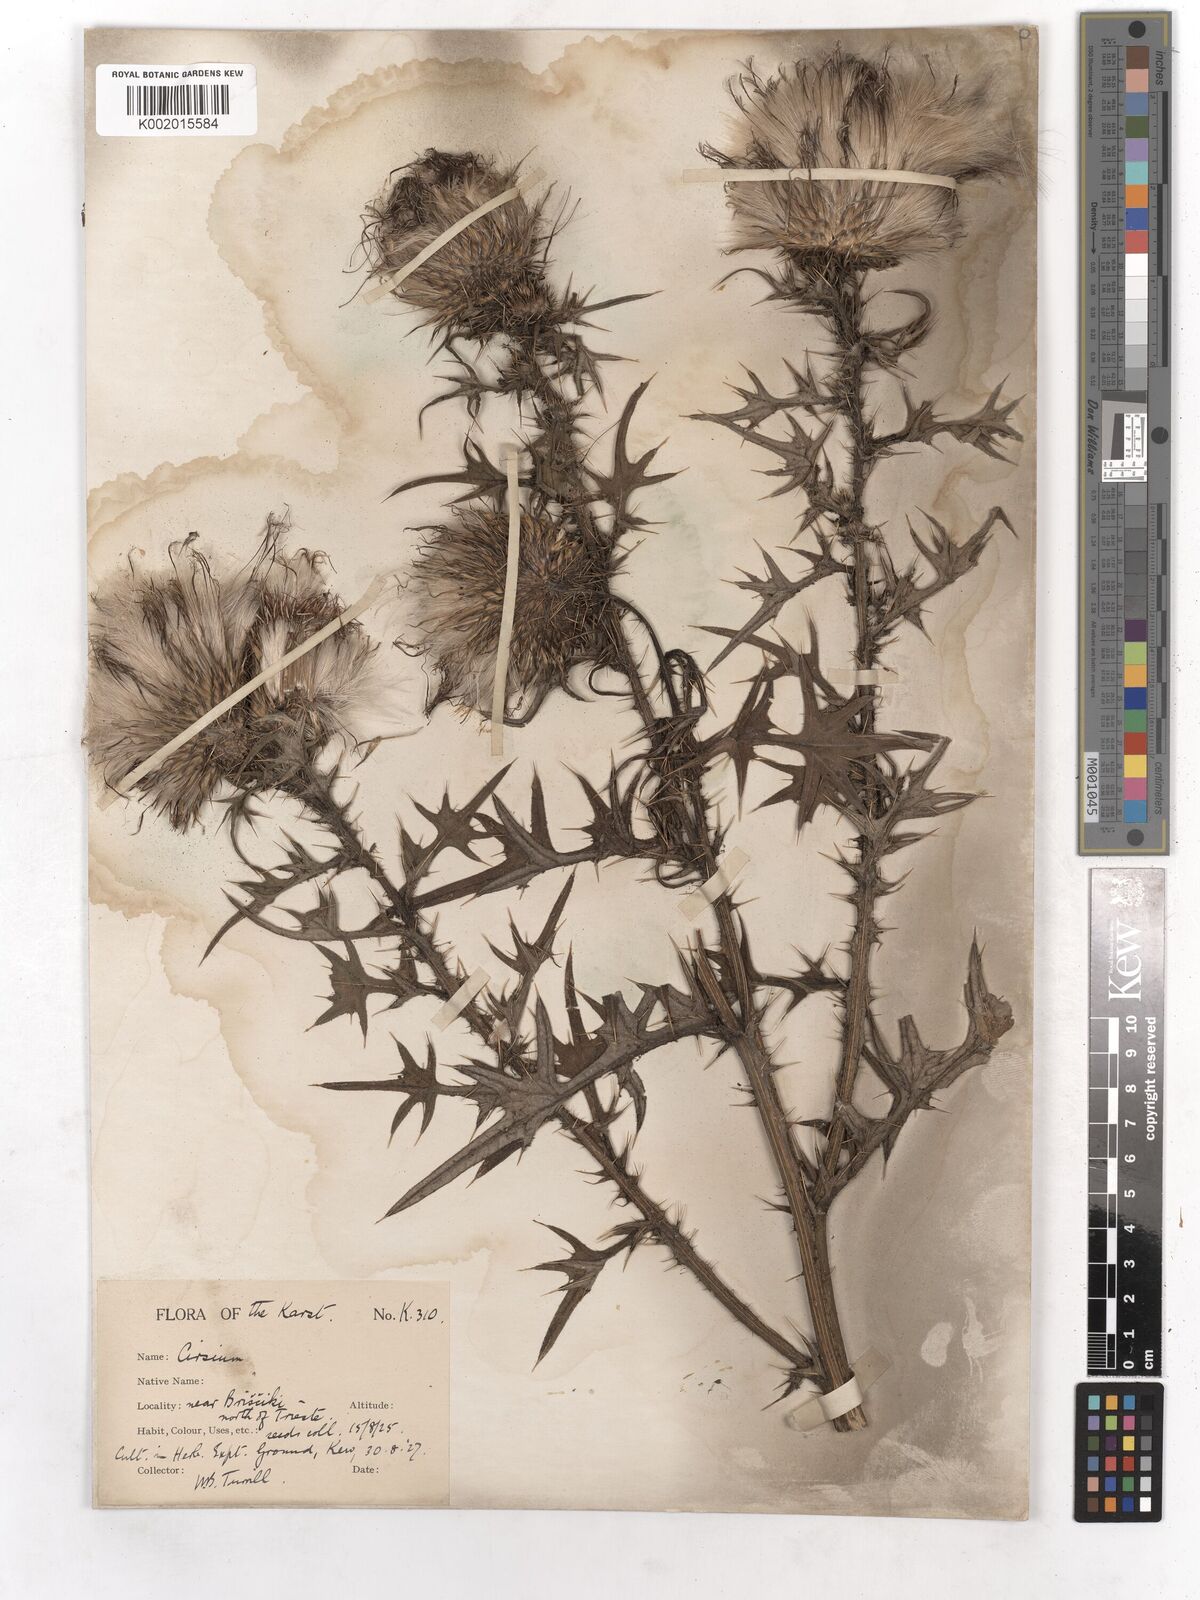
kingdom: Plantae
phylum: Tracheophyta
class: Magnoliopsida
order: Asterales
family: Asteraceae
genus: Cirsium
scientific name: Cirsium vulgare
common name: Bull thistle
